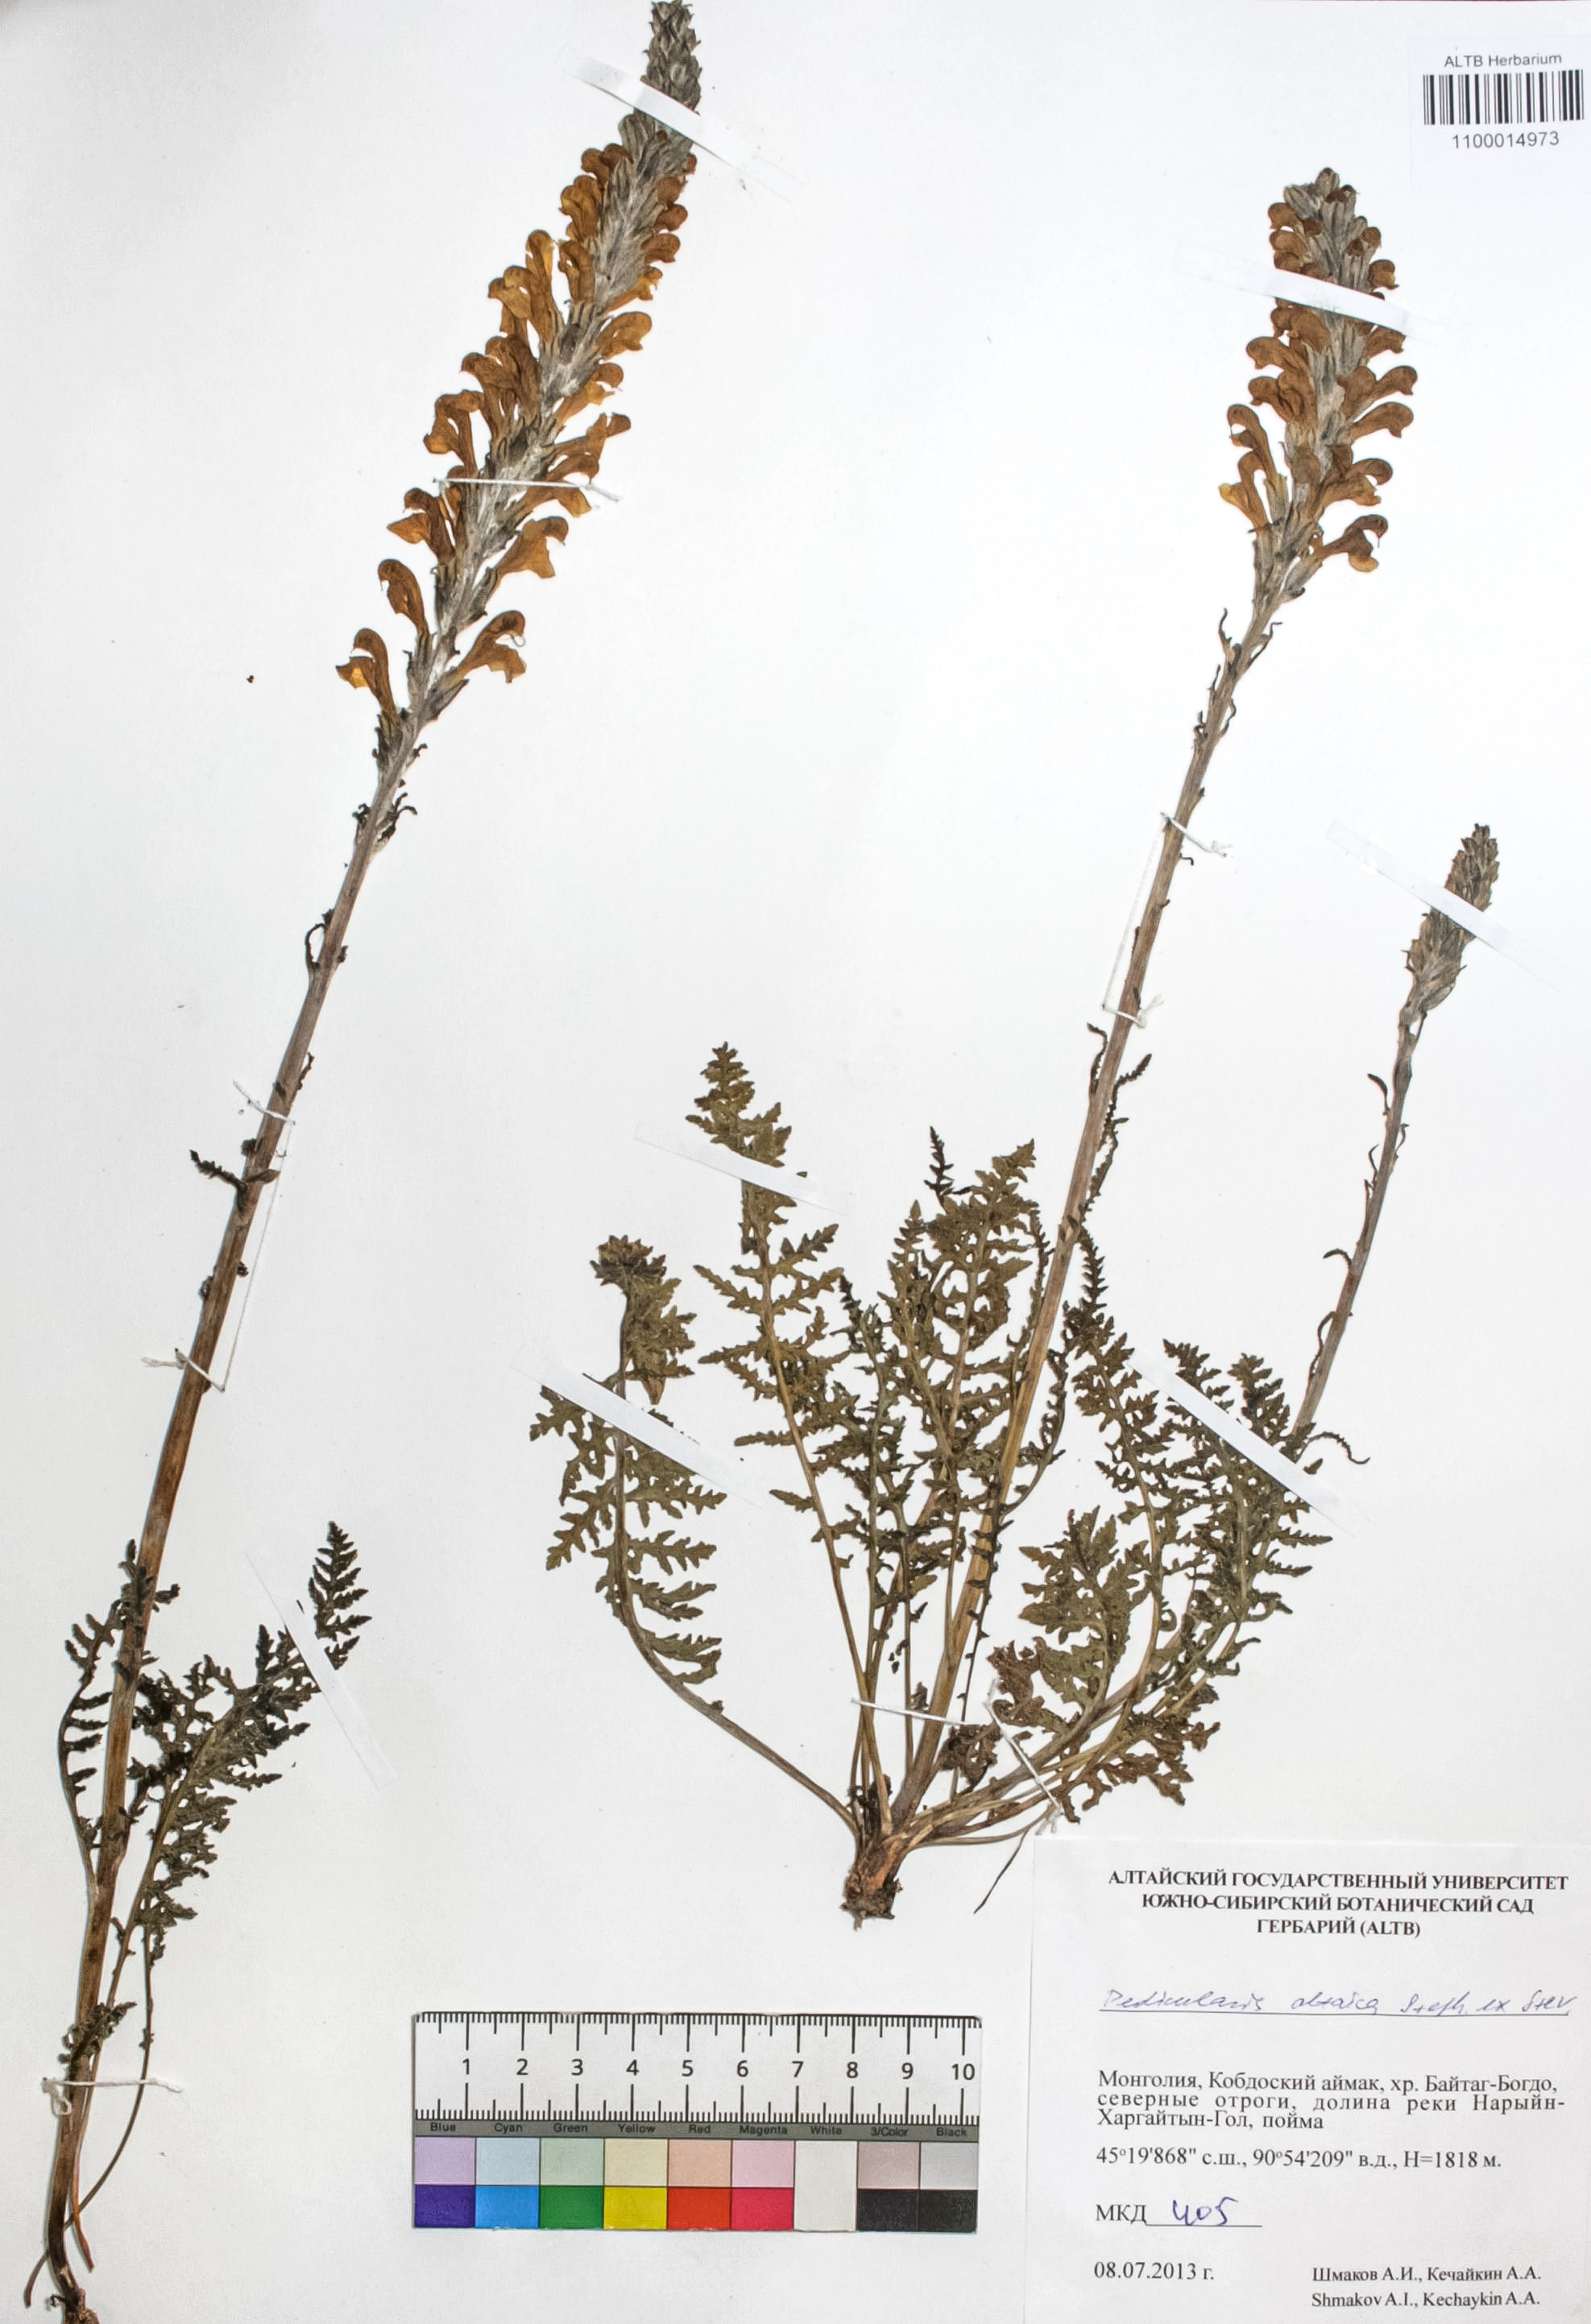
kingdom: Plantae
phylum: Tracheophyta
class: Magnoliopsida
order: Lamiales
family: Orobanchaceae
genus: Pedicularis
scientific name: Pedicularis altaica
